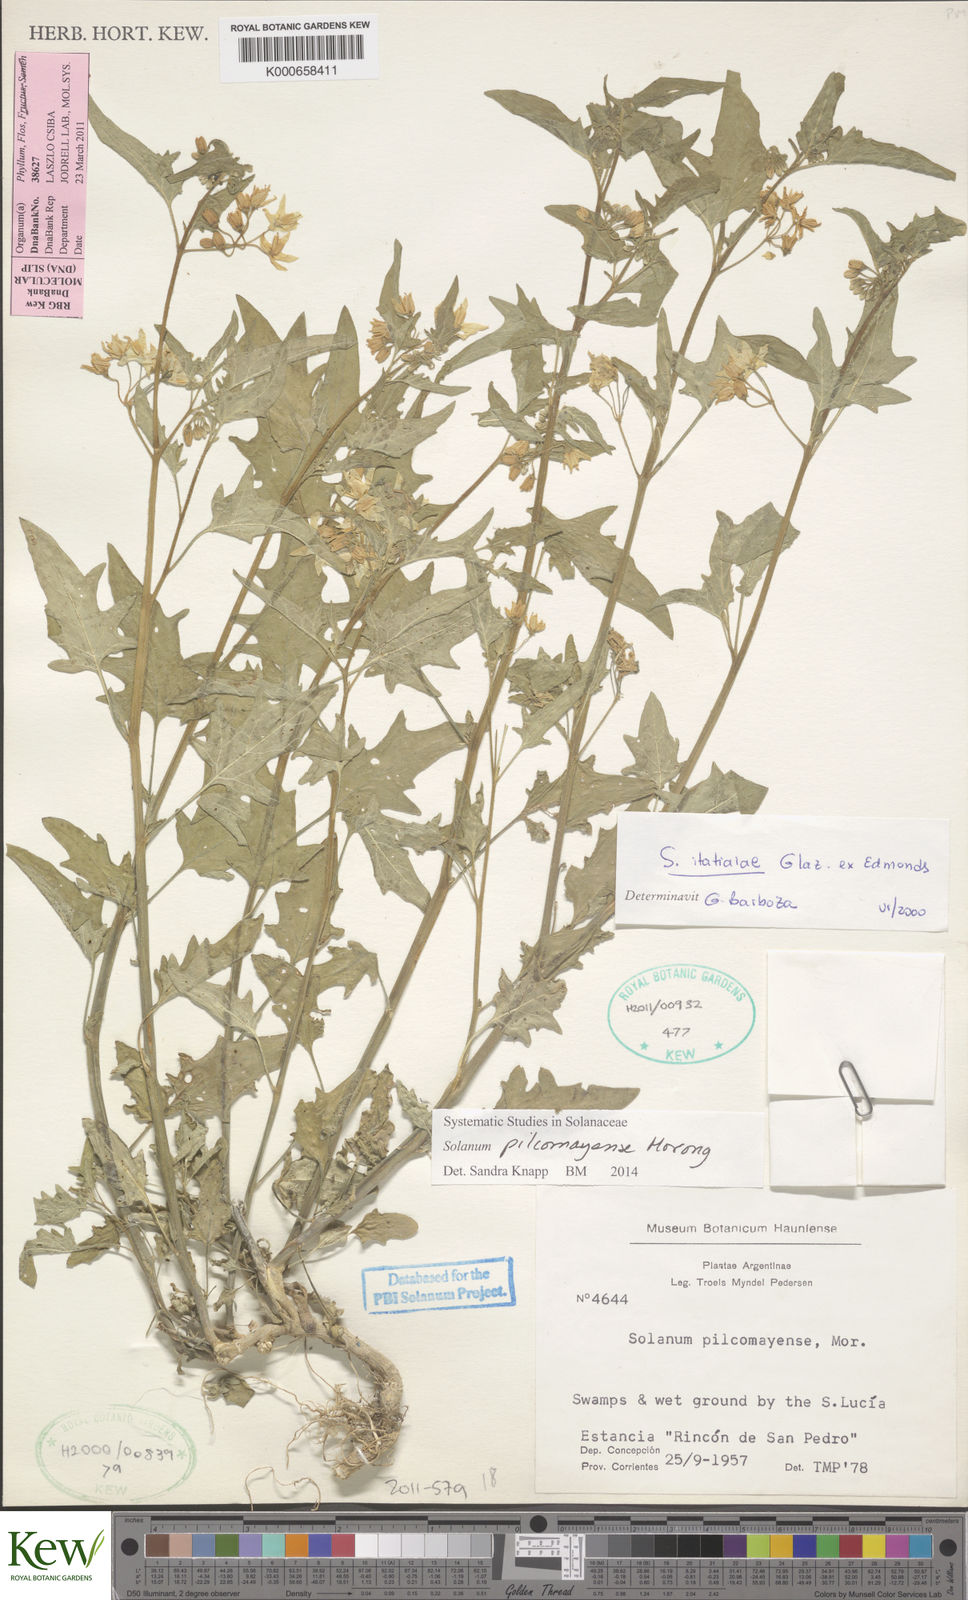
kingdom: Plantae
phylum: Tracheophyta
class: Magnoliopsida
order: Solanales
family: Solanaceae
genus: Solanum
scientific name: Solanum pilcomayense
